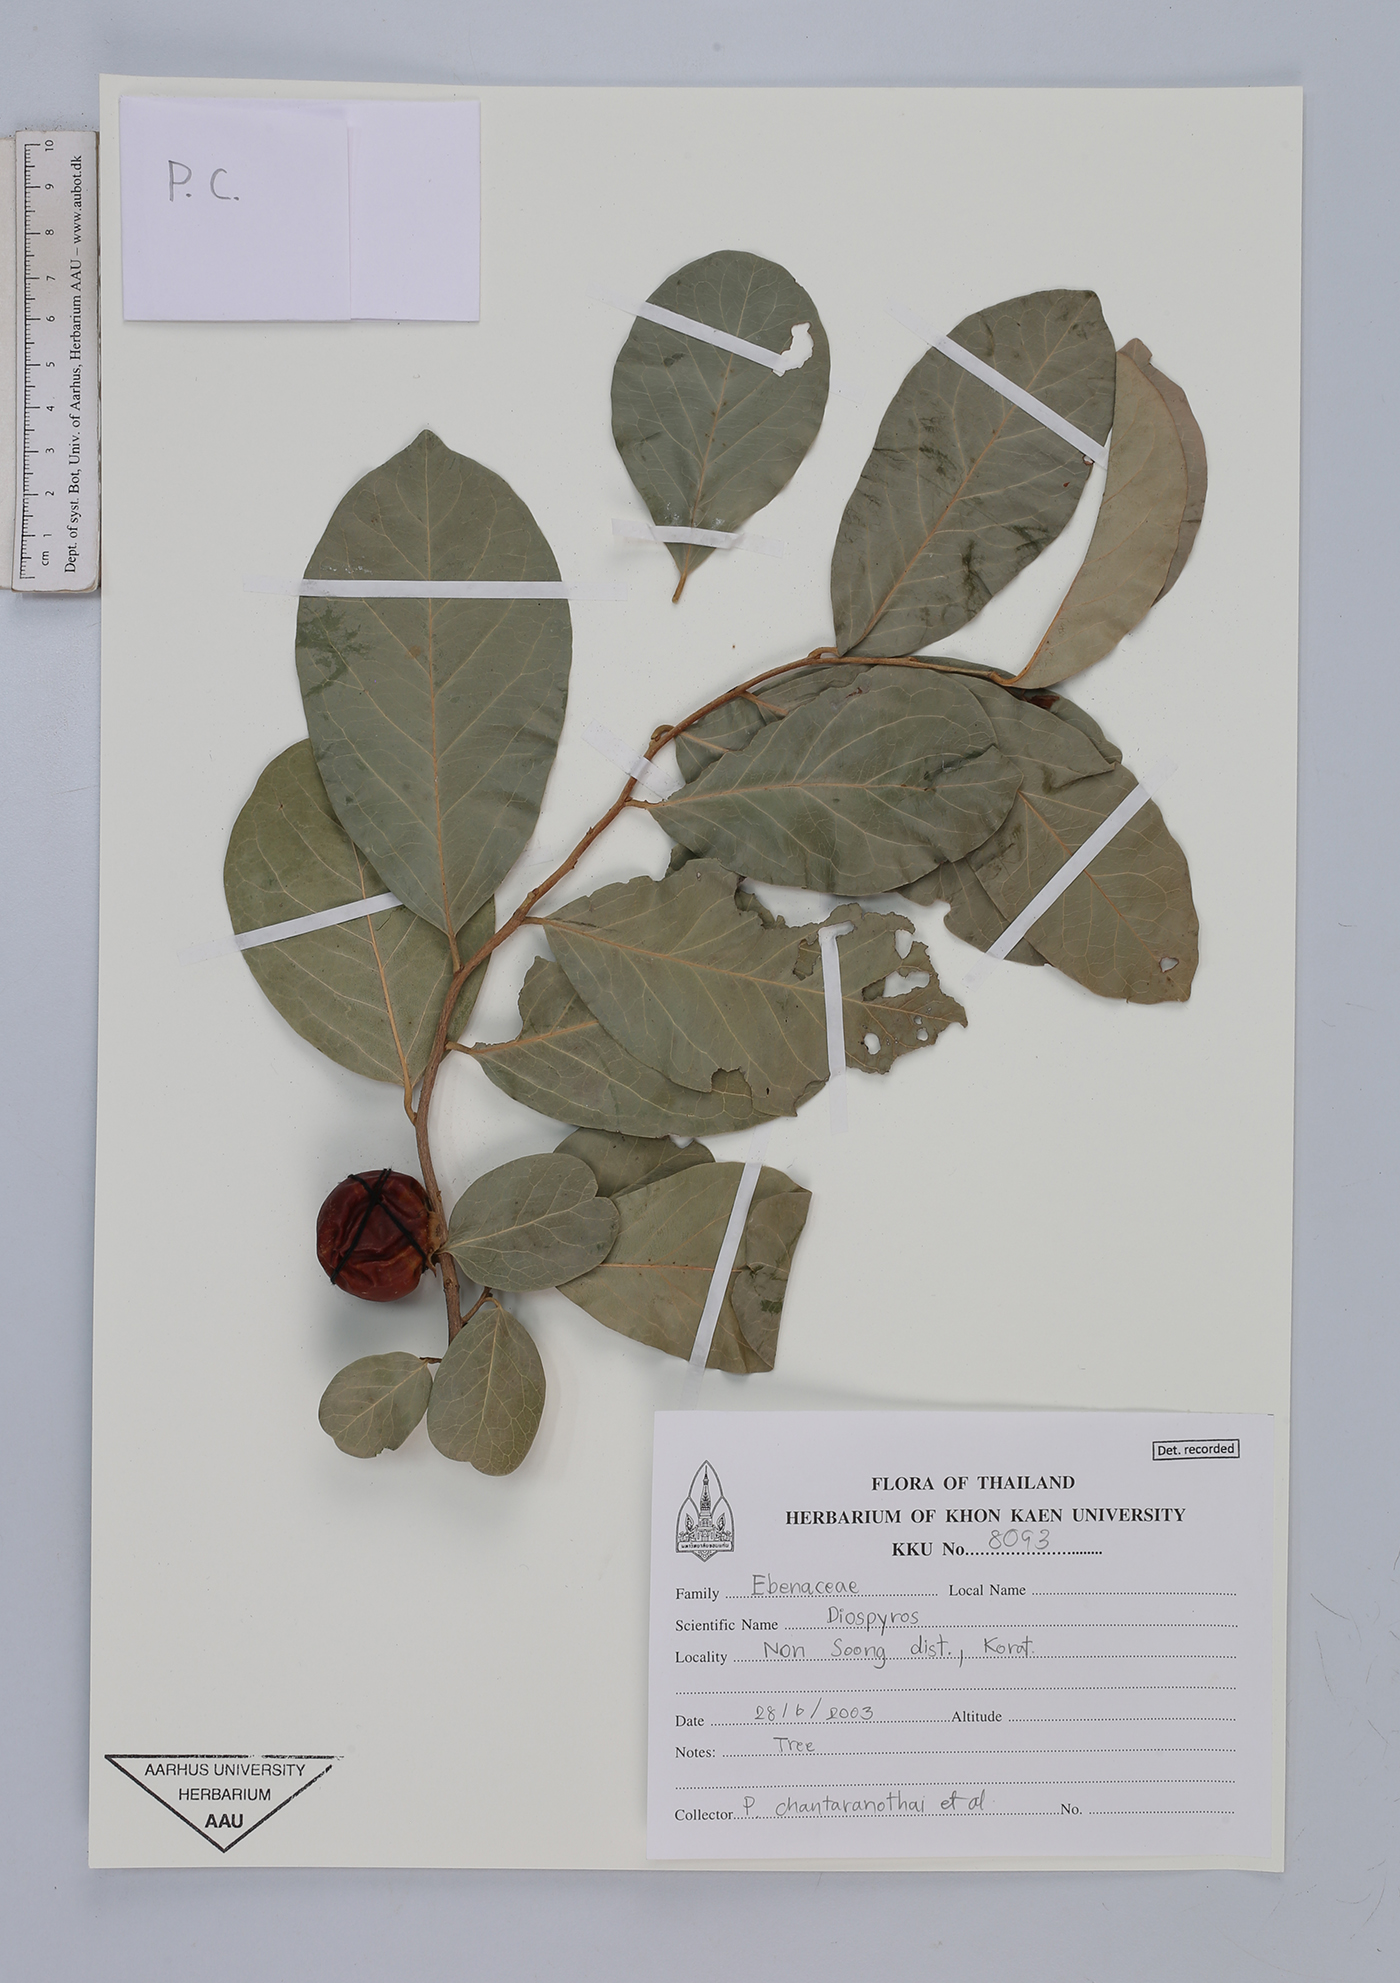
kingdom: Plantae
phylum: Tracheophyta
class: Magnoliopsida
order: Ericales
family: Ebenaceae
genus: Diospyros
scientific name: Diospyros
